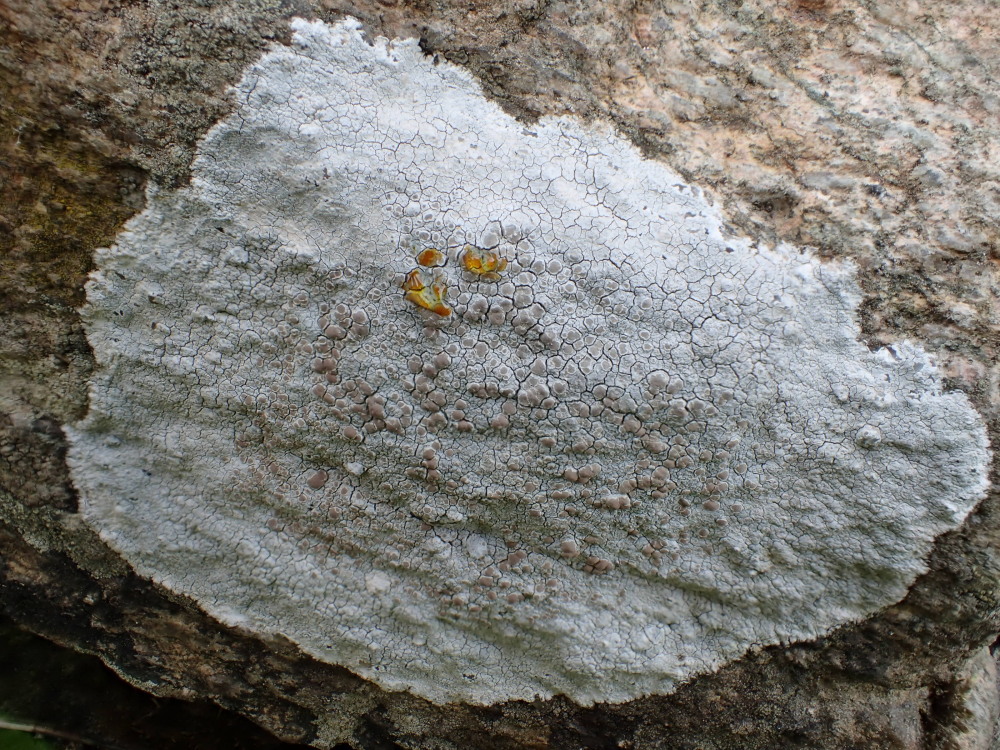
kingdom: Fungi
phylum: Ascomycota
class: Lecanoromycetes
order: Lecanorales
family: Lecanoraceae
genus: Glaucomaria
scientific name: Glaucomaria rupicola
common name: stengærde-kantskivelav
